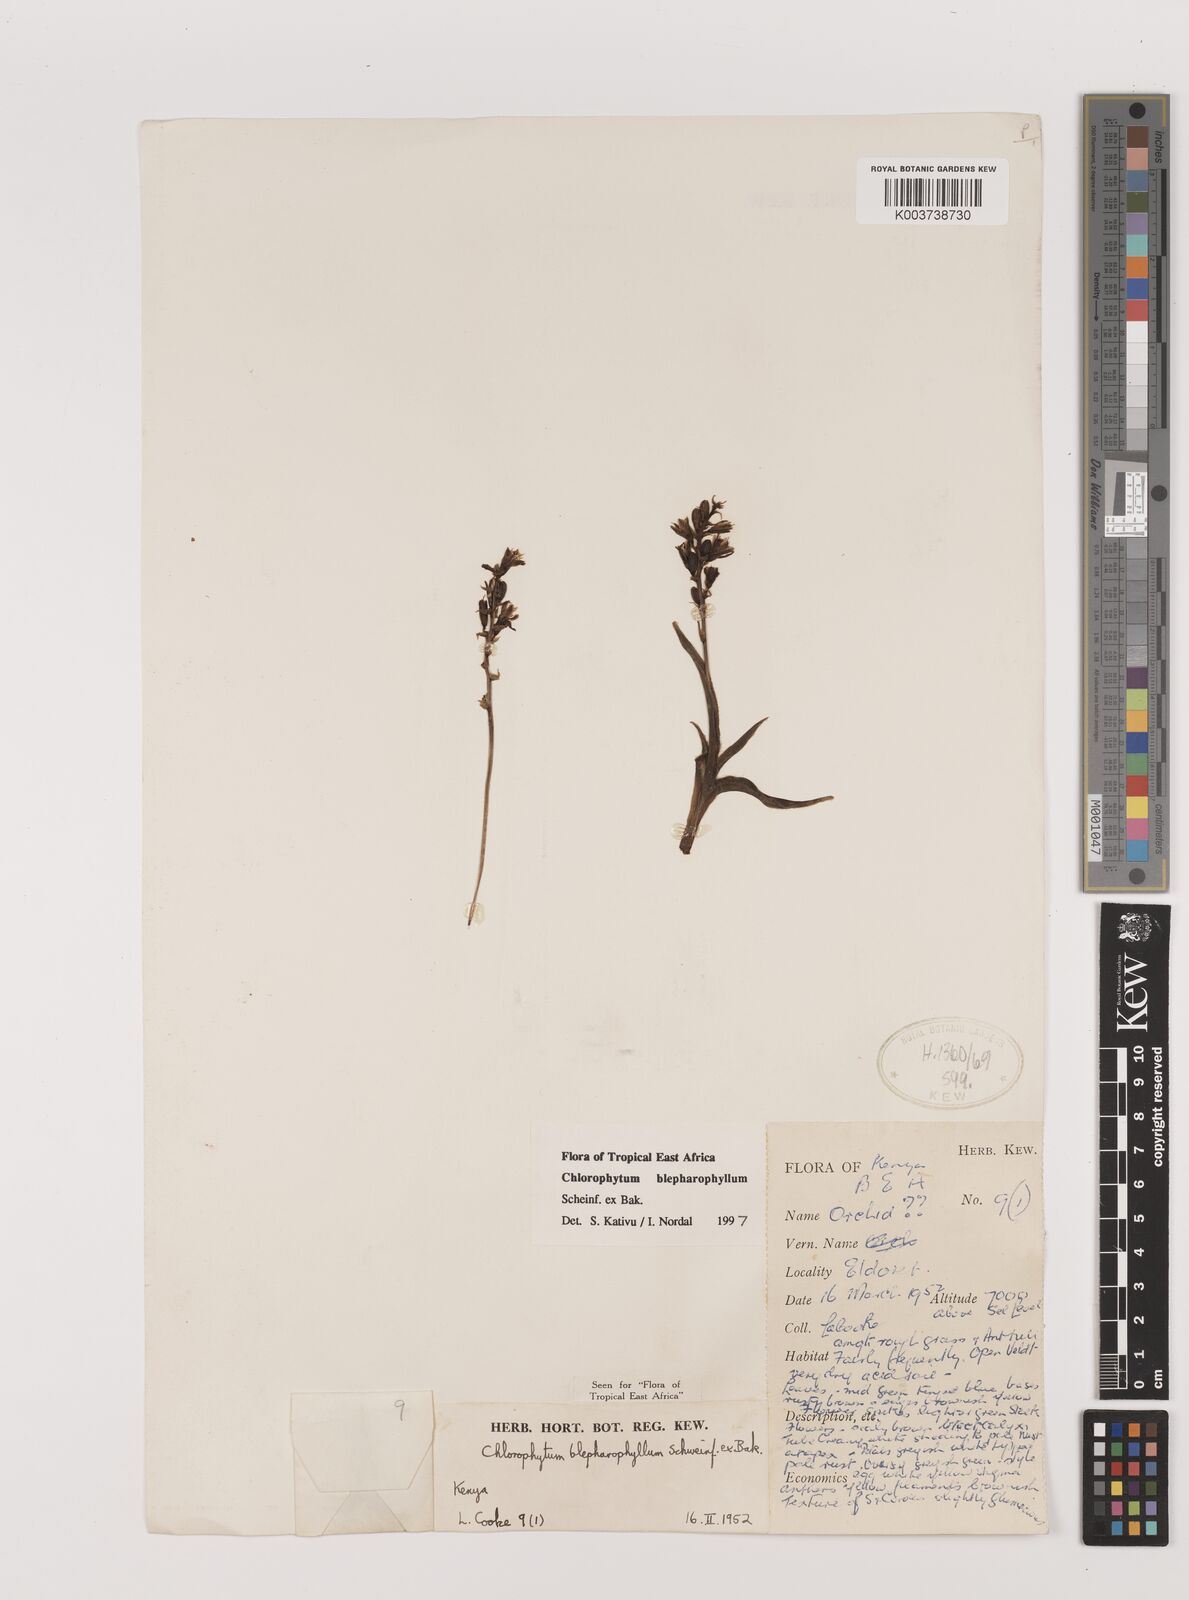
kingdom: Plantae
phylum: Tracheophyta
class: Liliopsida
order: Asparagales
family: Asparagaceae
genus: Chlorophytum
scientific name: Chlorophytum blepharophyllum
